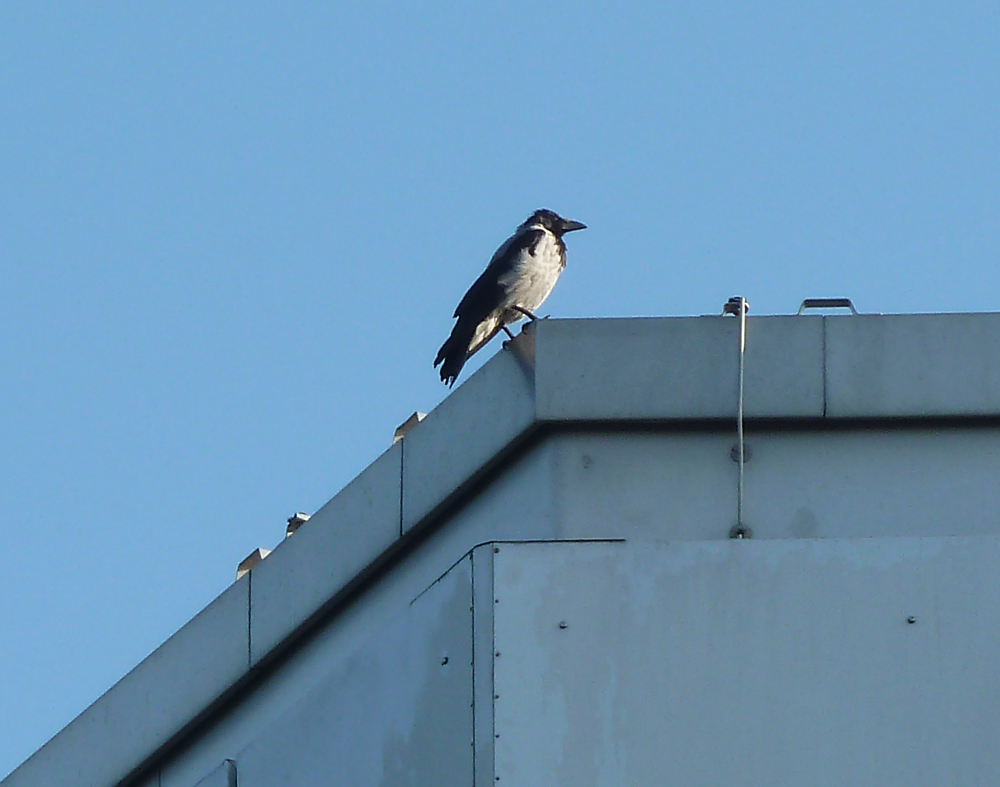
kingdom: Animalia
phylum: Chordata
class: Aves
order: Passeriformes
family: Corvidae
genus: Corvus
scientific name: Corvus cornix
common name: Hooded crow
